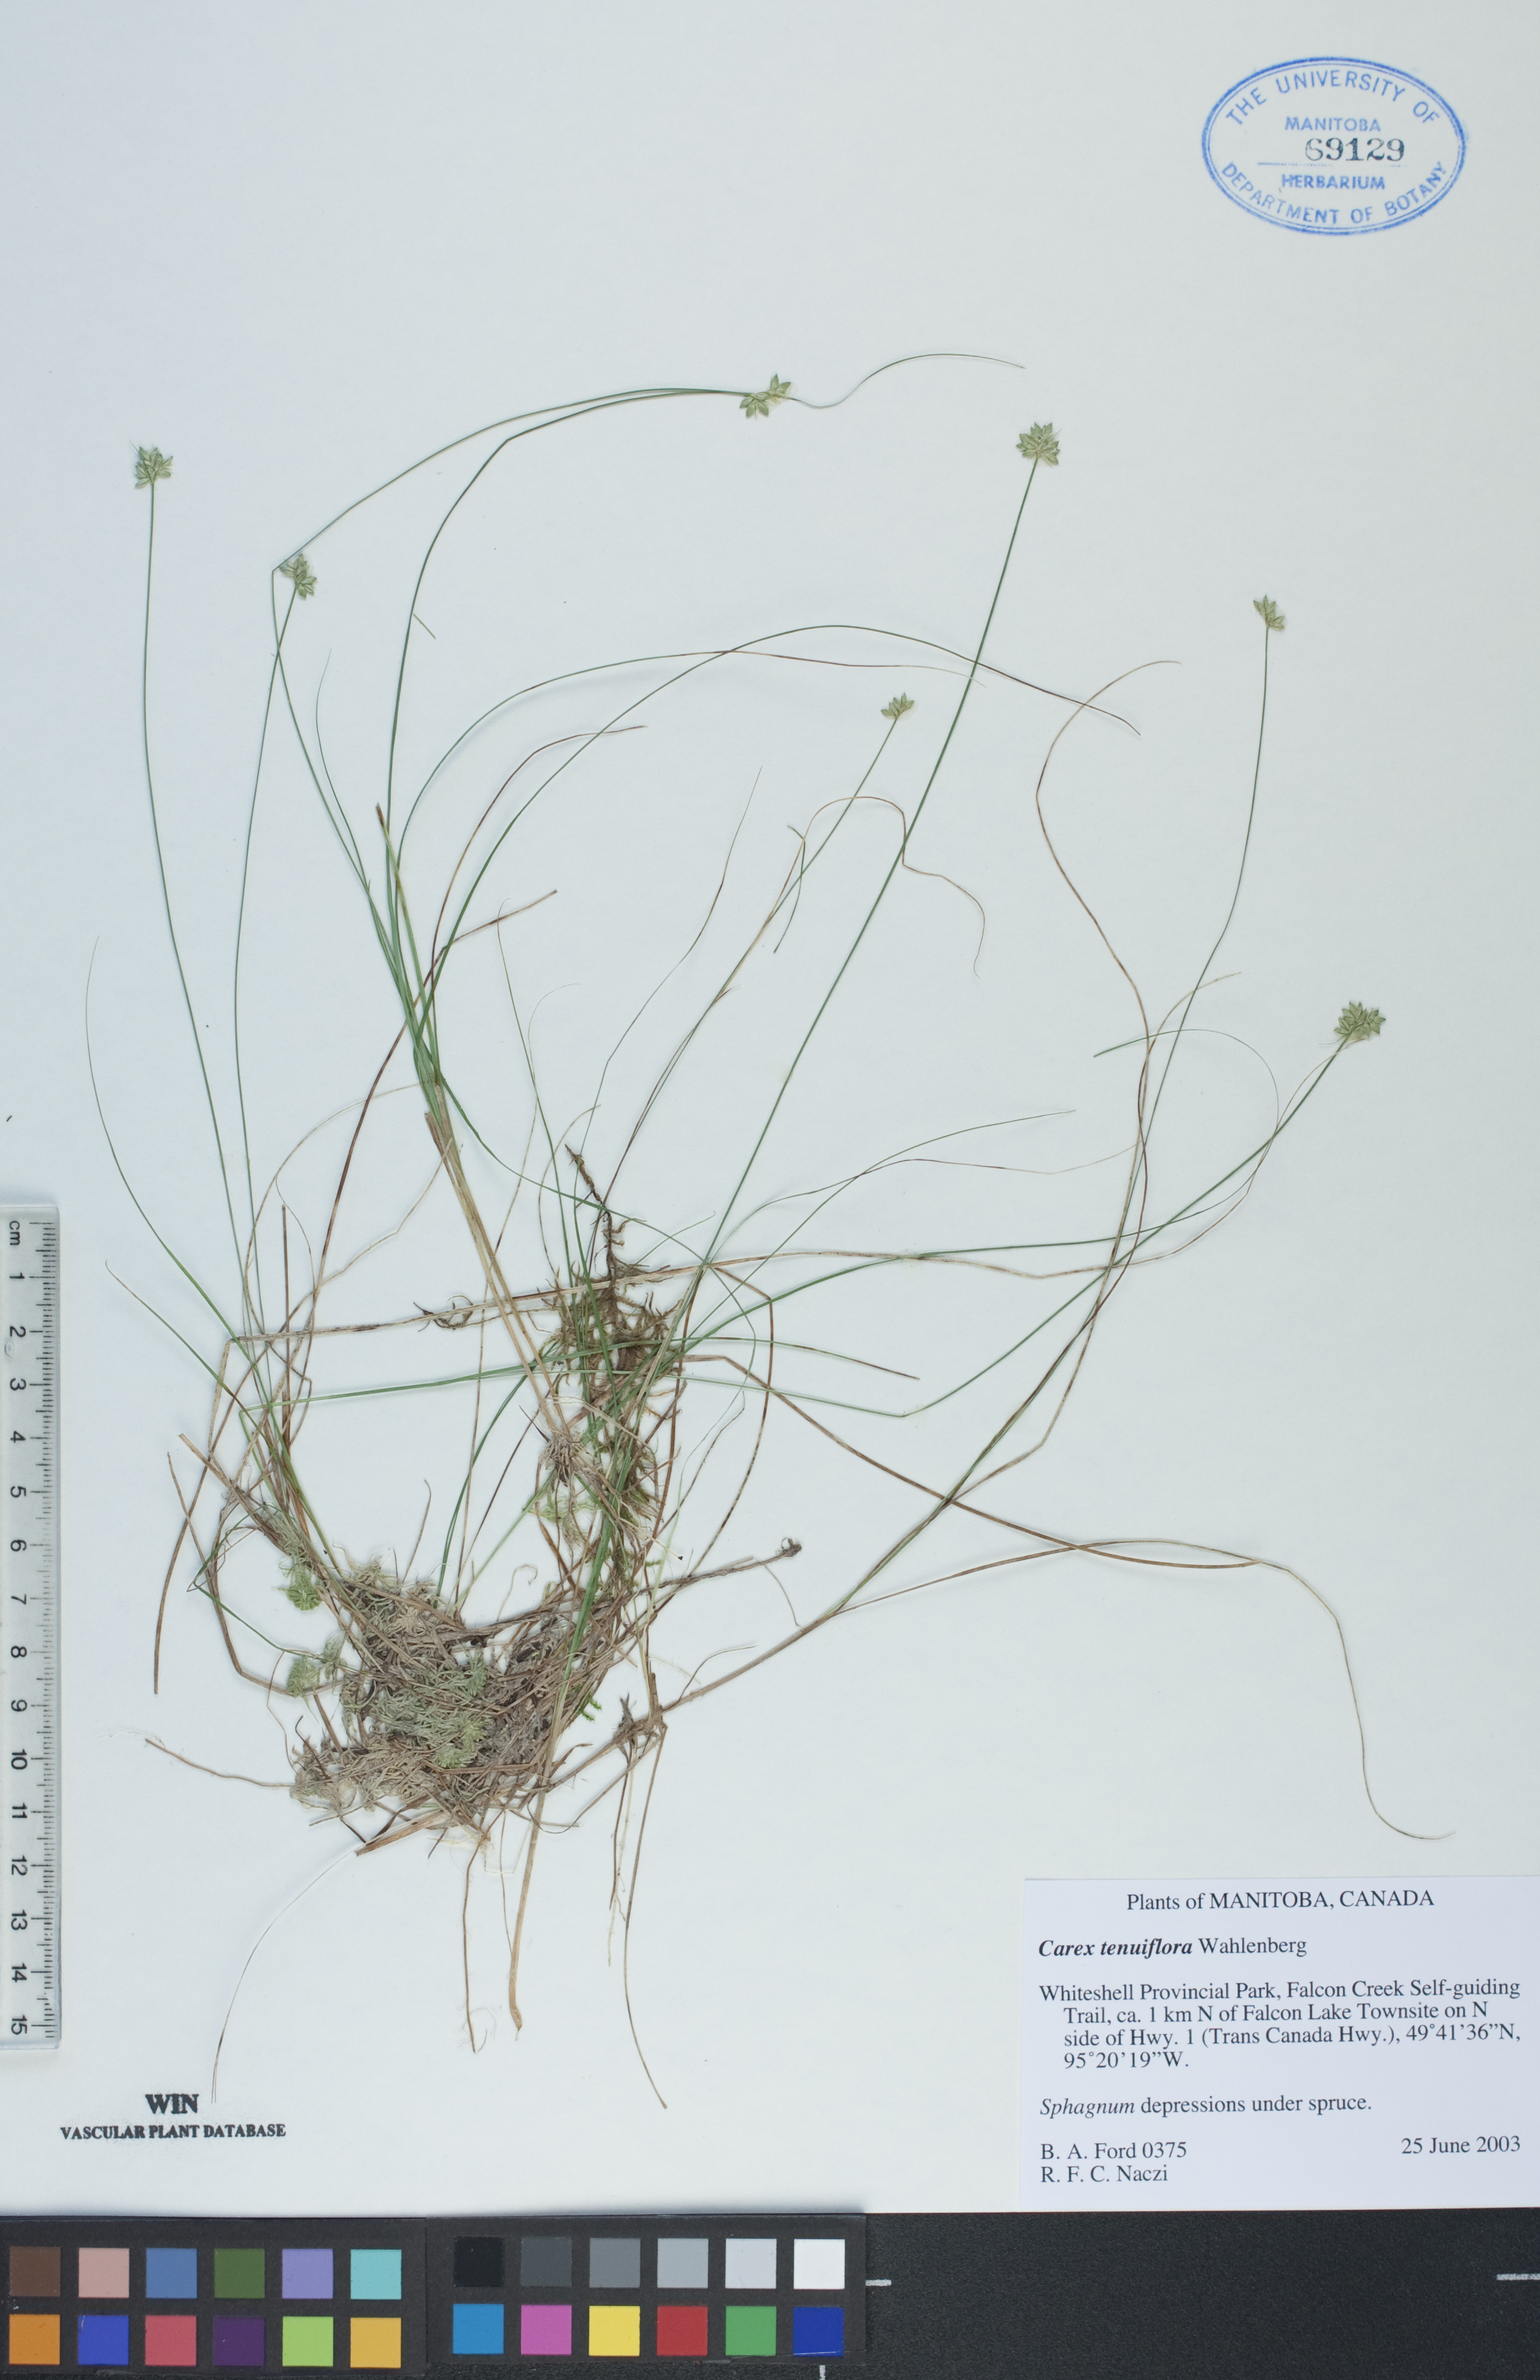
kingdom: Plantae
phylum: Tracheophyta
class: Liliopsida
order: Poales
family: Cyperaceae
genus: Carex
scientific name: Carex tenuiflora
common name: Sparse-flowered sedge
